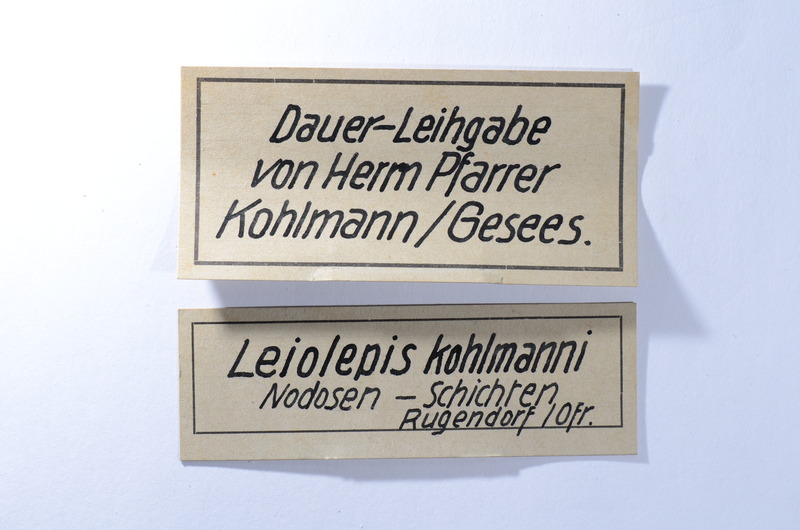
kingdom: Animalia
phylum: Chordata
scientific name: Chordata
